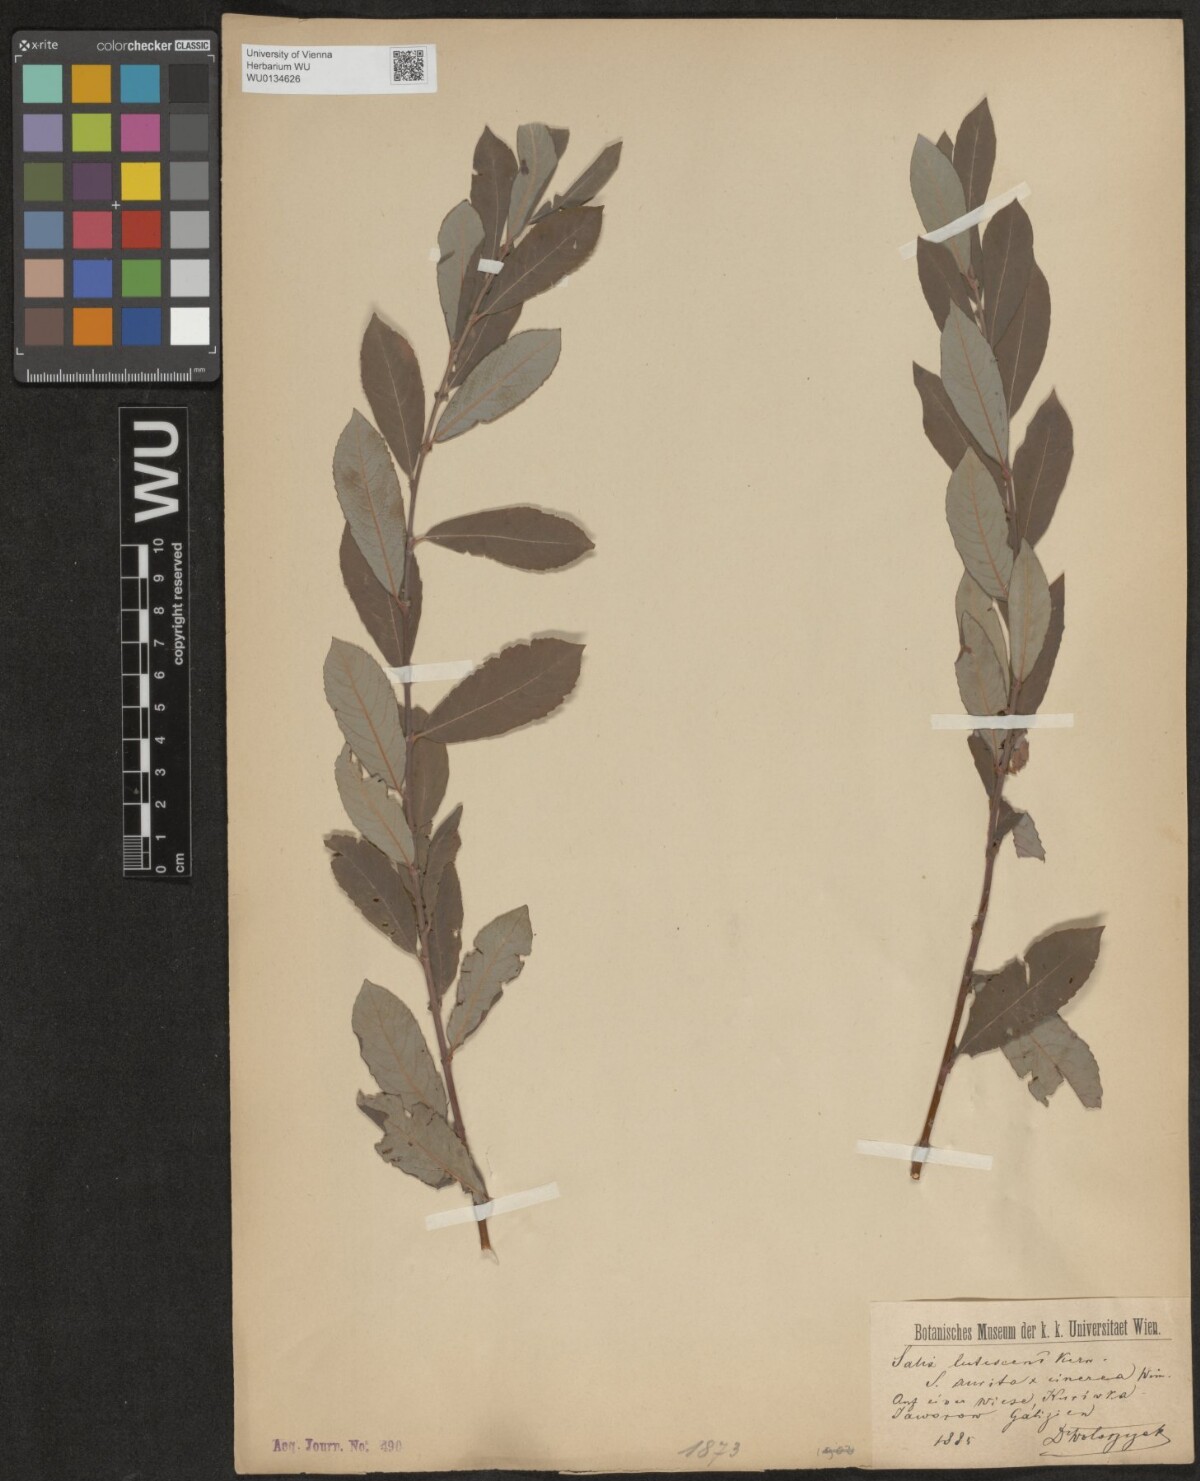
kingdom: Plantae
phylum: Tracheophyta
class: Magnoliopsida
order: Malpighiales
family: Salicaceae
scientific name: Salicaceae
